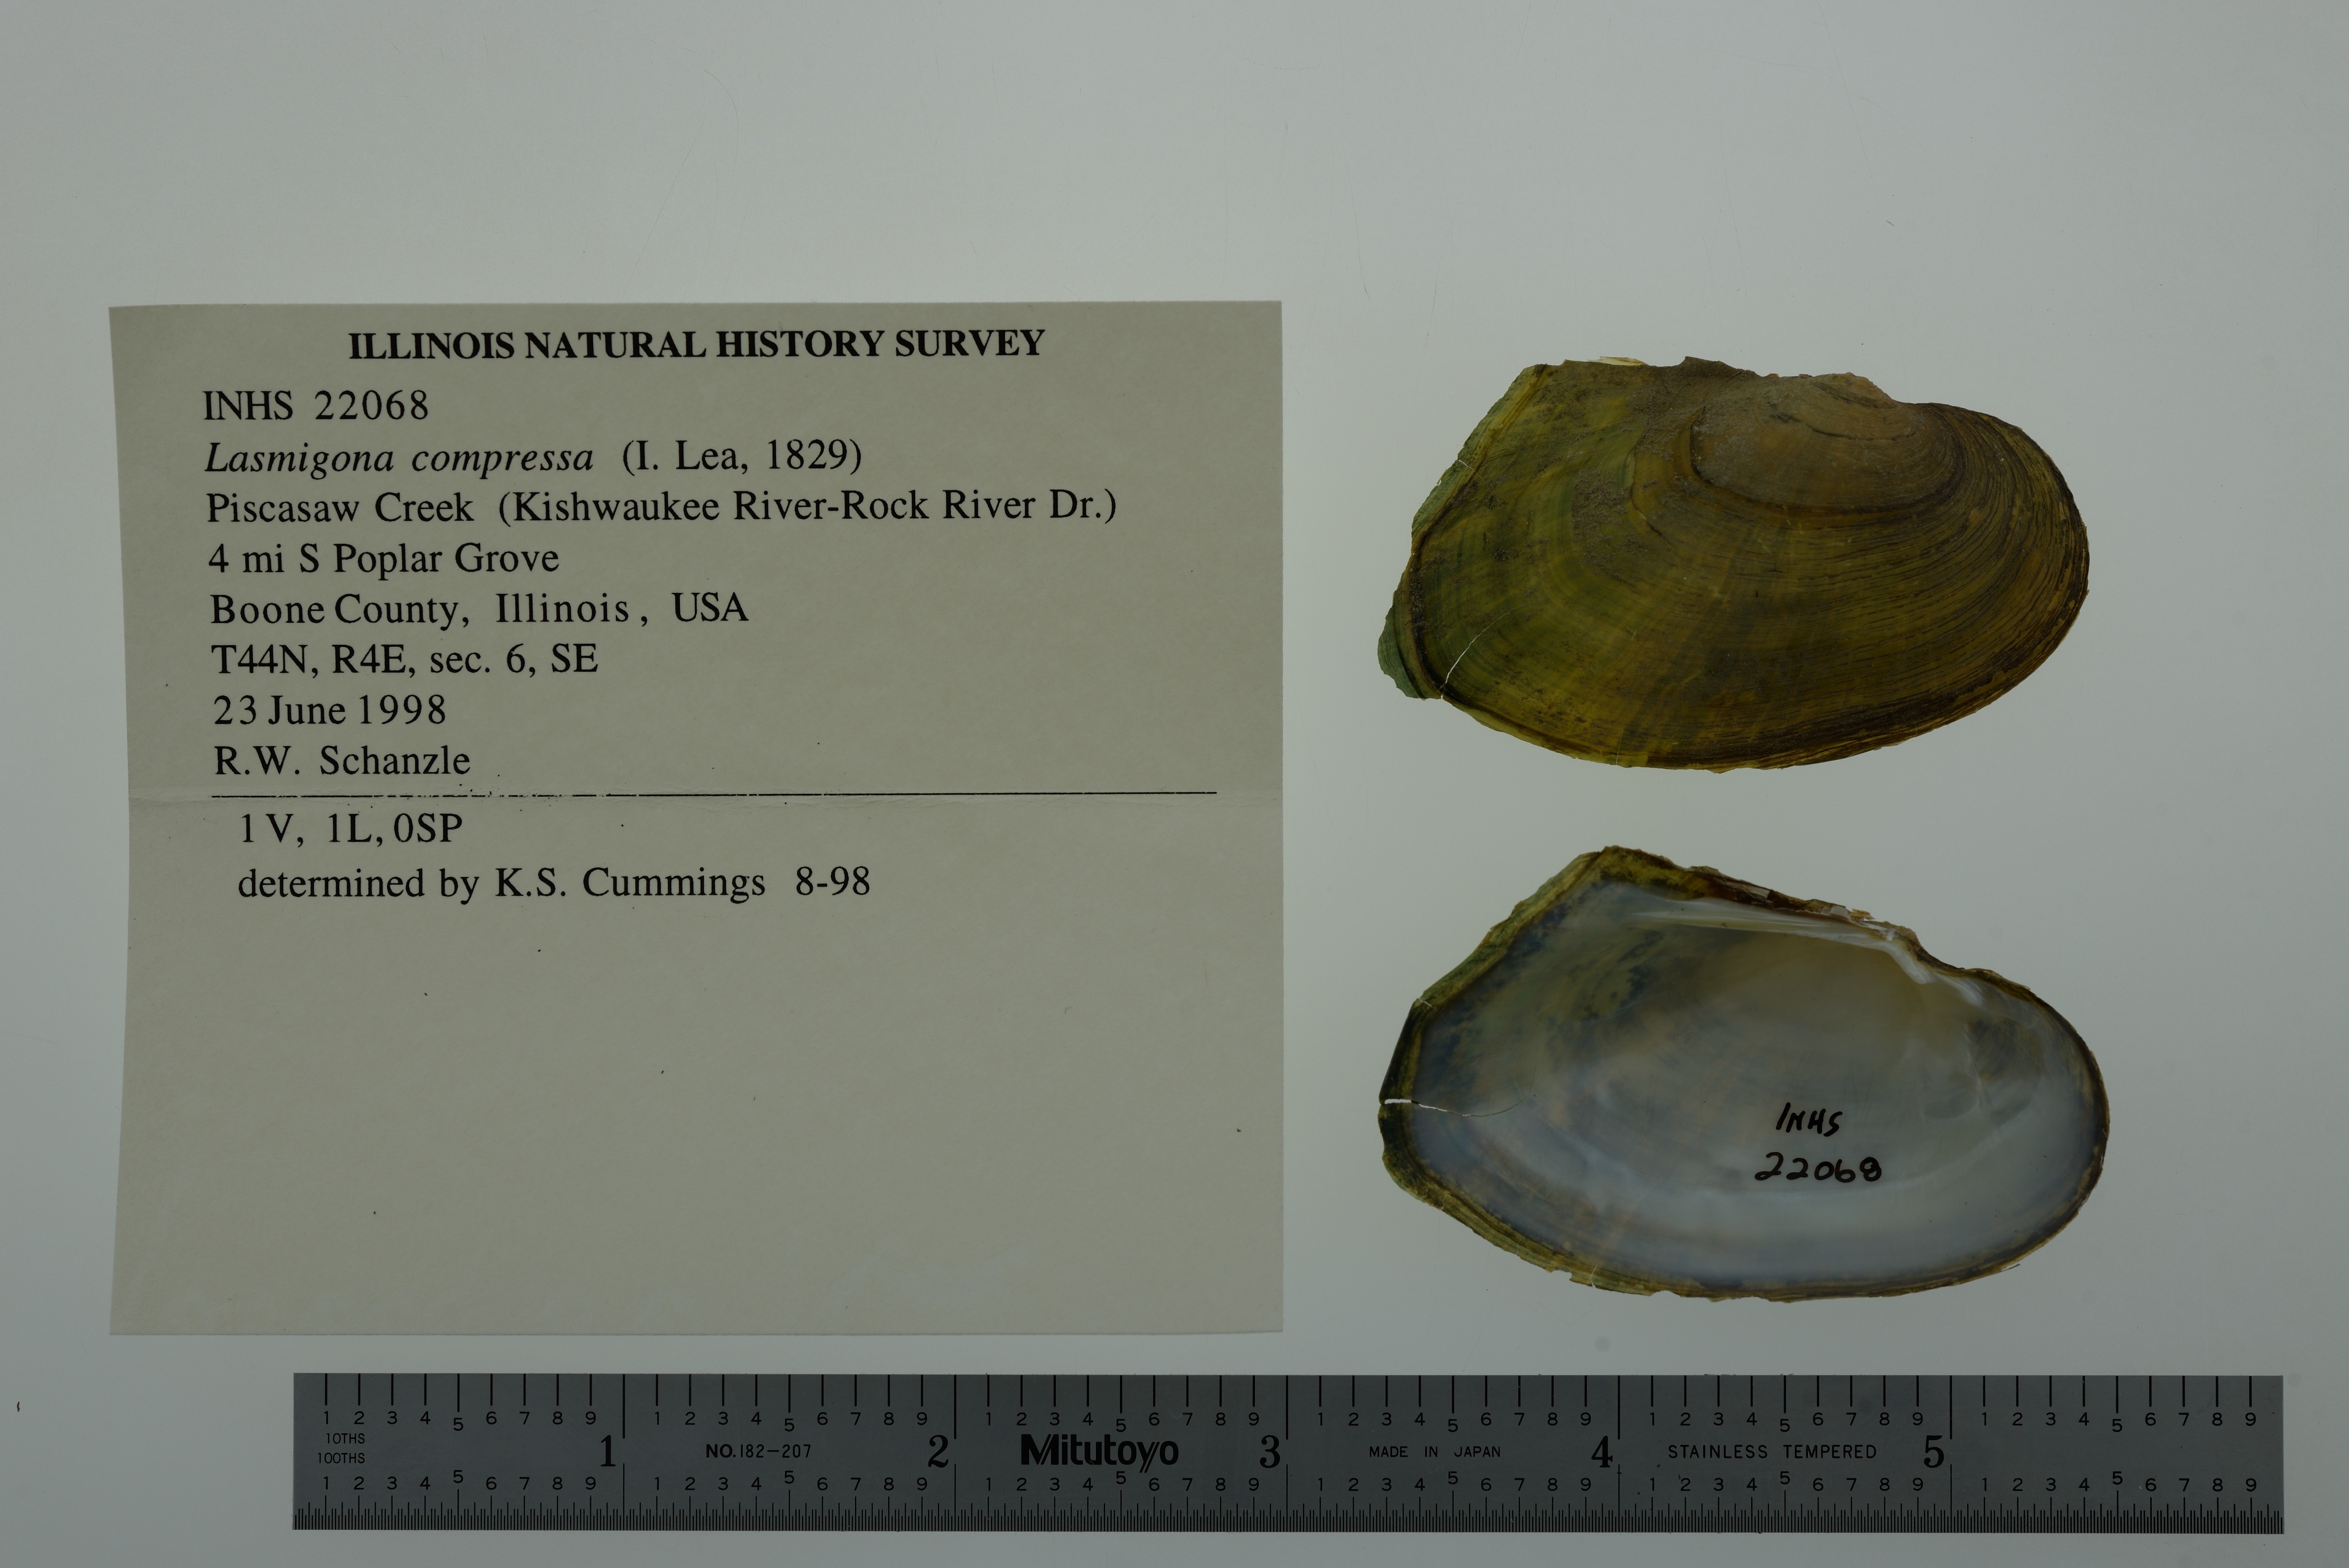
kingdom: Animalia
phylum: Mollusca
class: Bivalvia
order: Unionida
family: Unionidae
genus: Lasmigona
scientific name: Lasmigona compressa
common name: Creek heelsplitter
